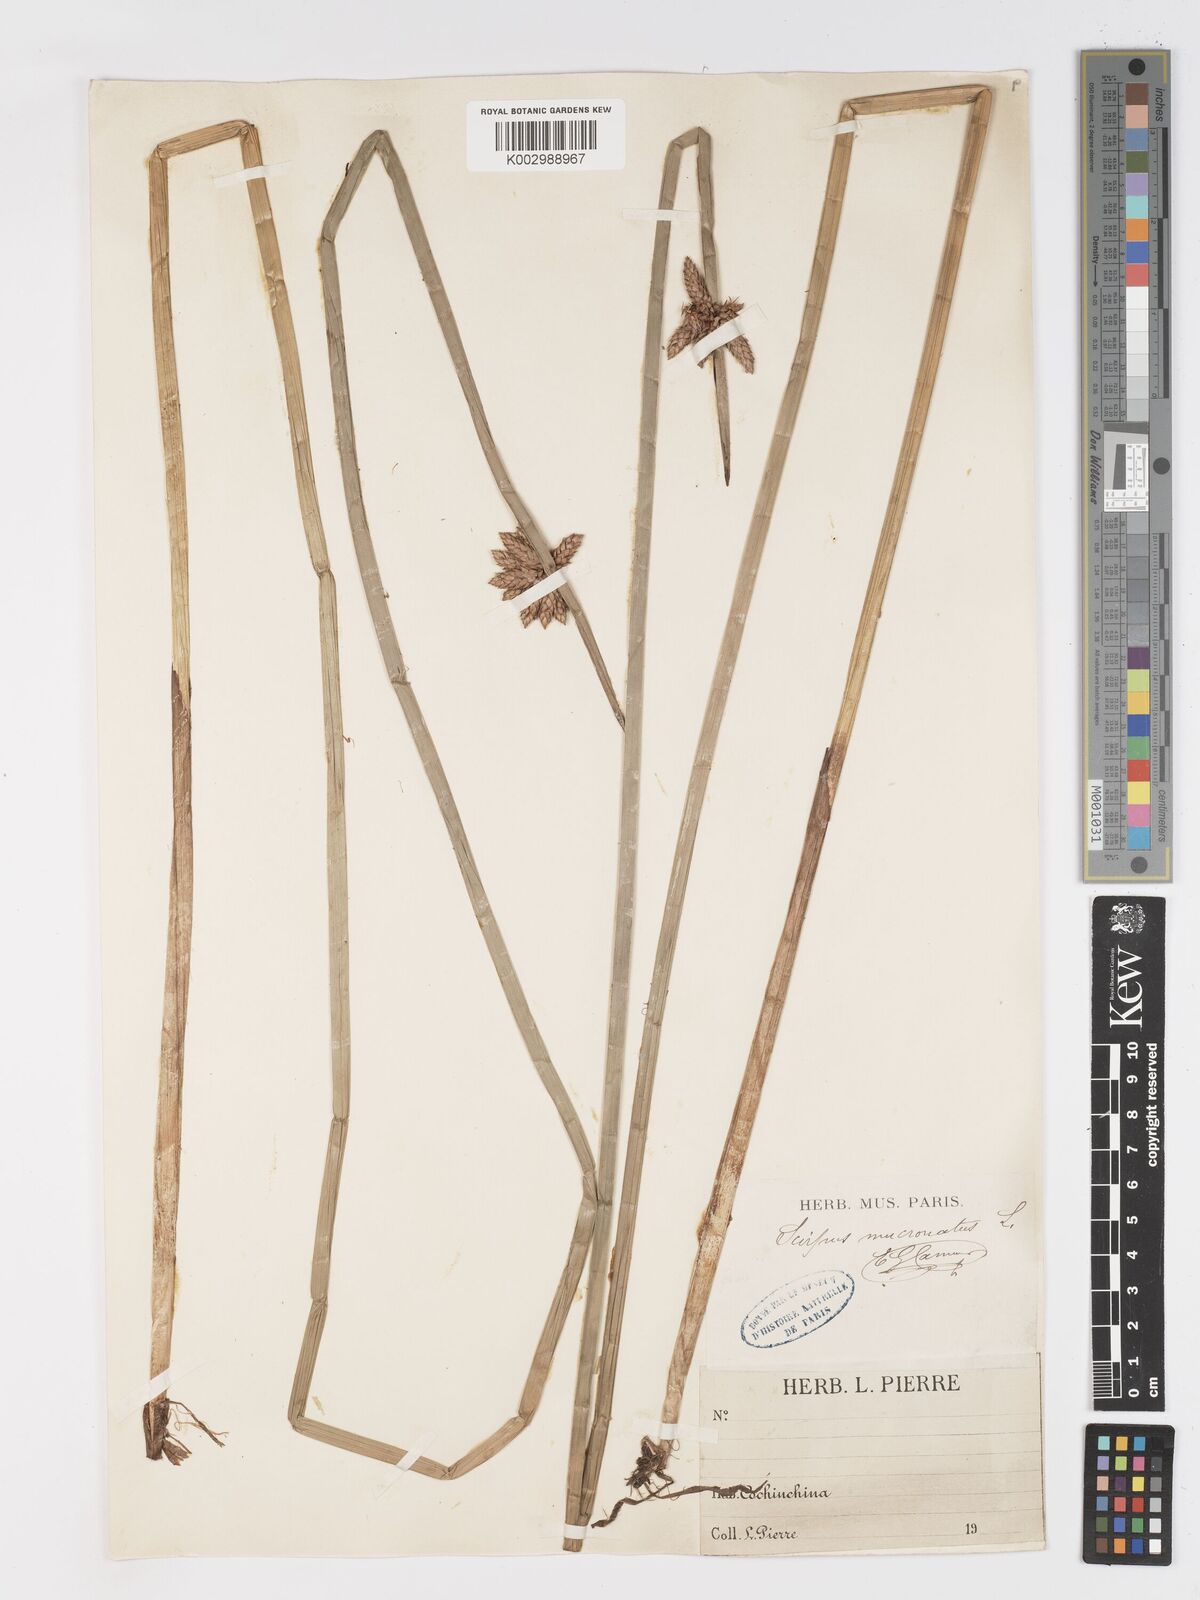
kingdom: Plantae
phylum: Tracheophyta
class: Liliopsida
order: Poales
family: Cyperaceae
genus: Schoenoplectiella
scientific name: Schoenoplectiella mucronata
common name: Bog bulrush
